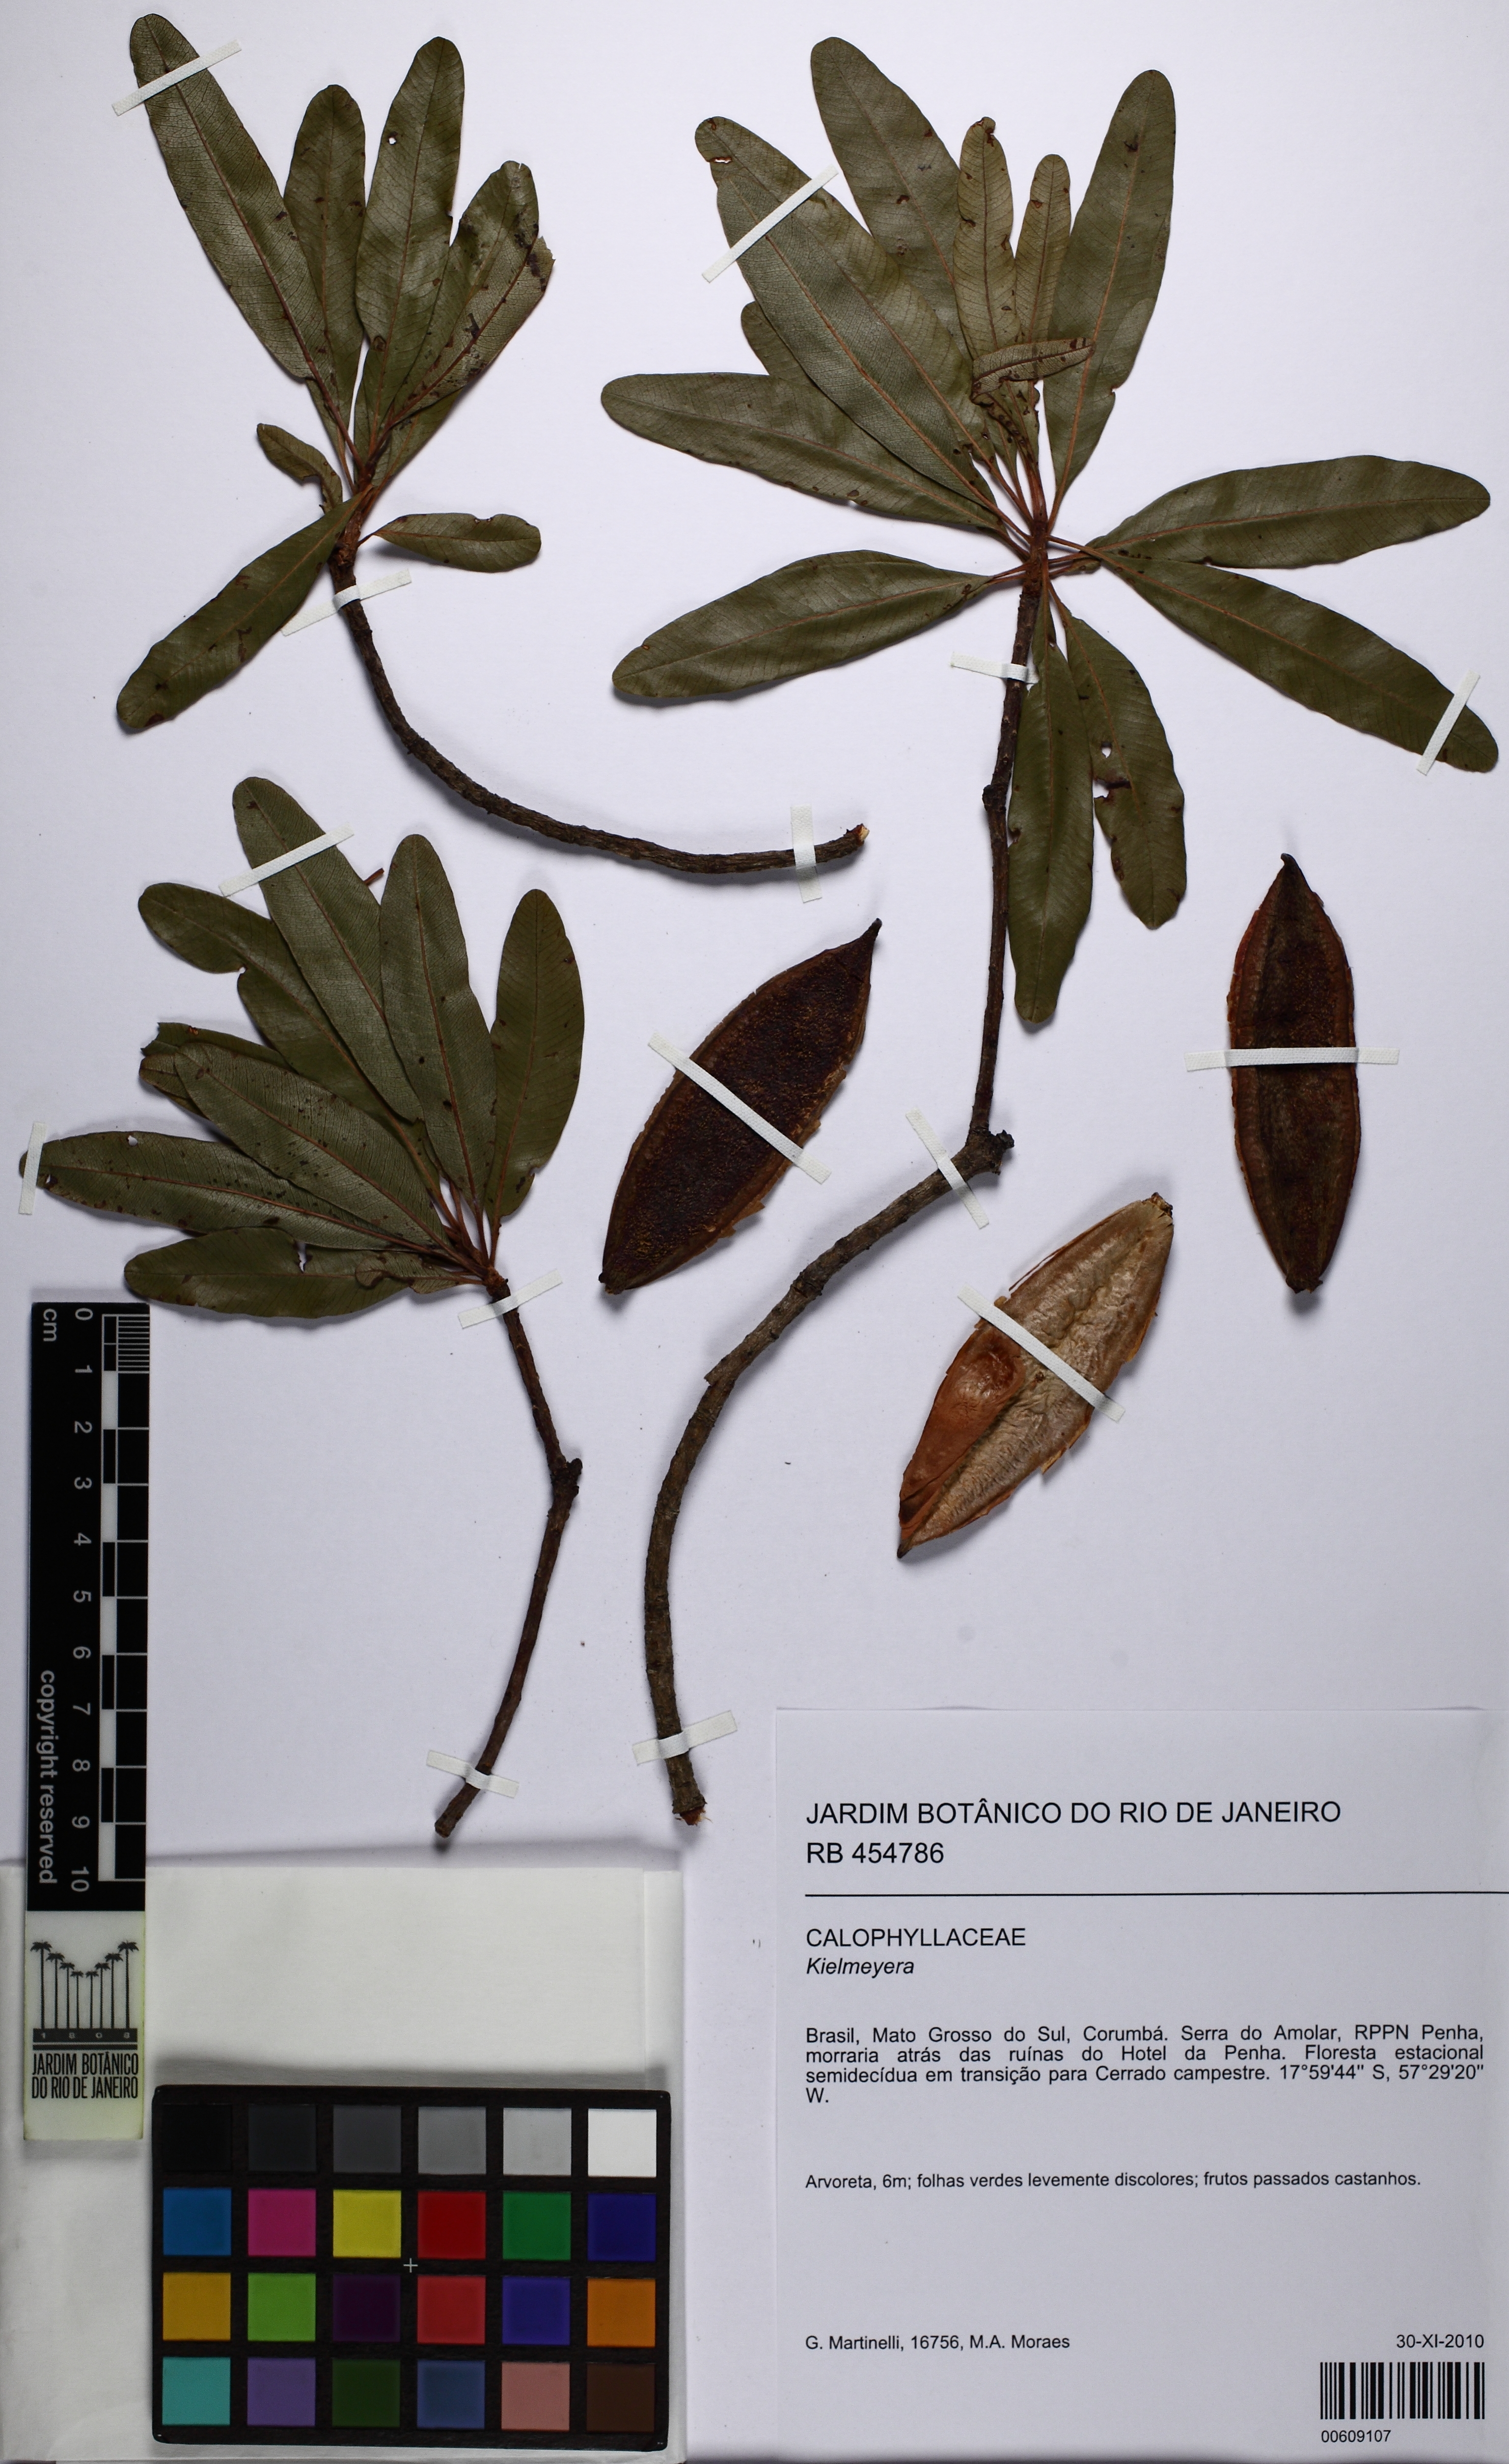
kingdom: Plantae
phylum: Tracheophyta
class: Magnoliopsida
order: Malpighiales
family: Calophyllaceae
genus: Kielmeyera
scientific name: Kielmeyera
